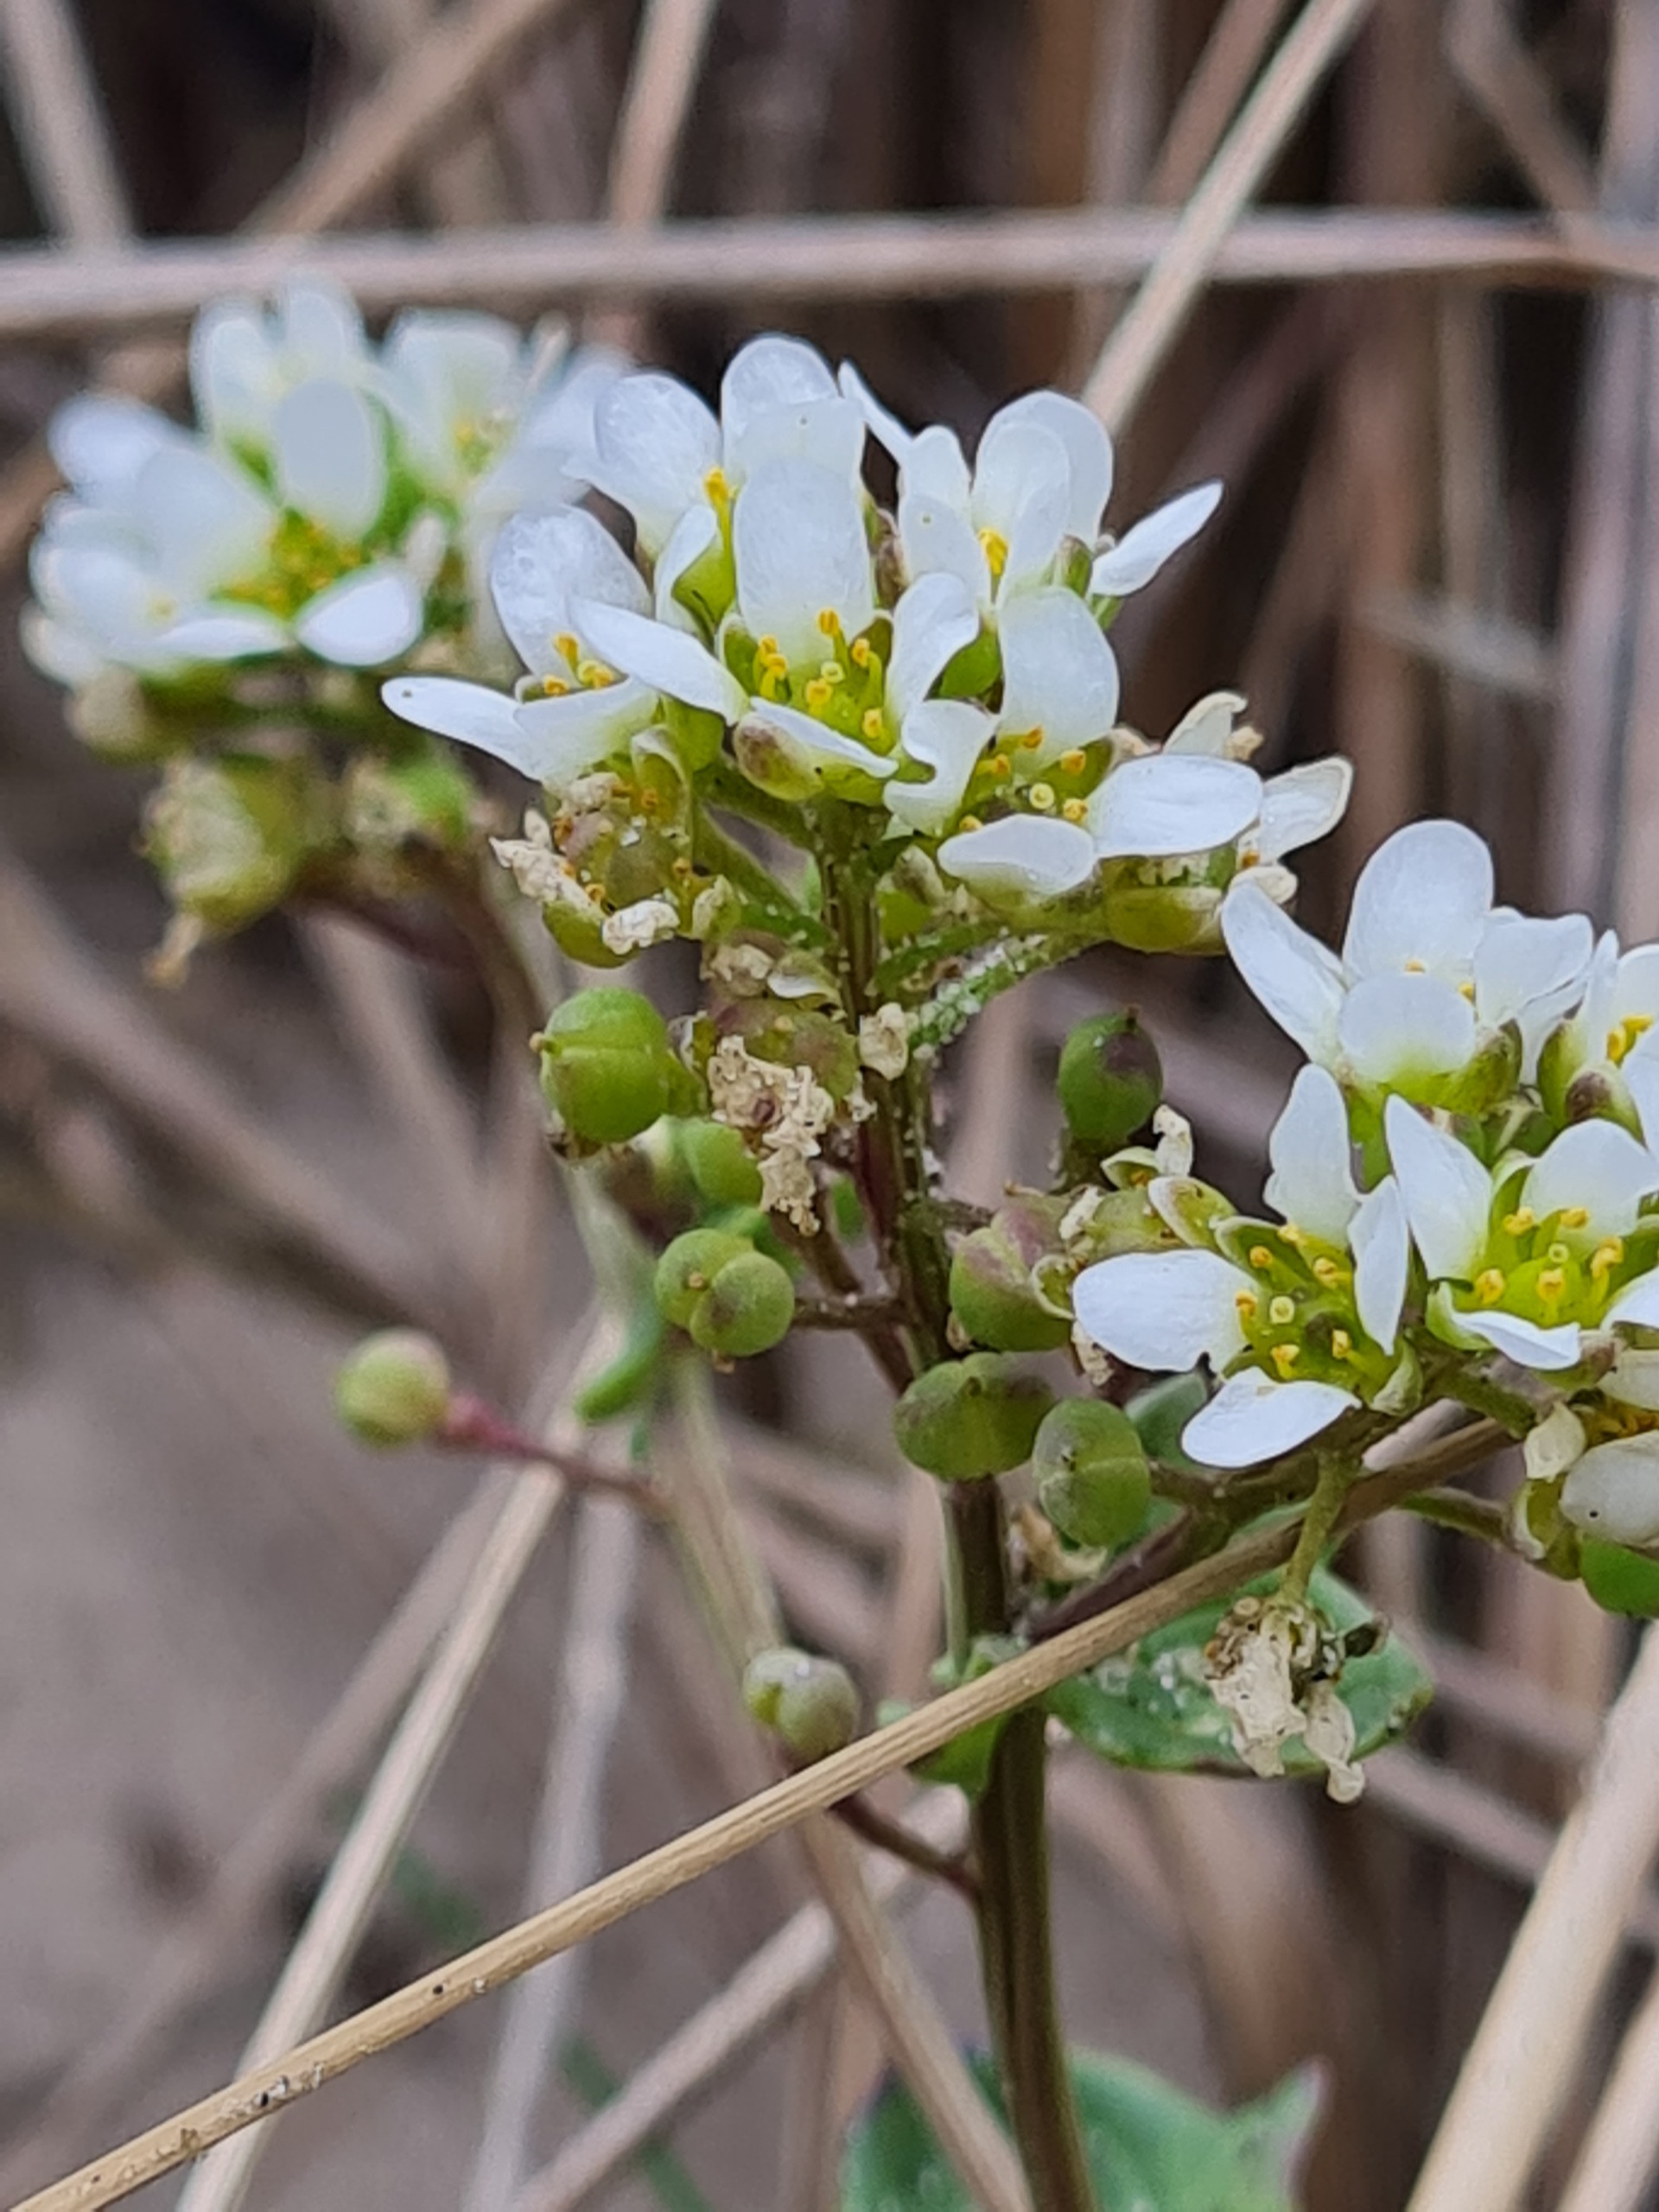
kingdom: Plantae
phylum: Tracheophyta
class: Magnoliopsida
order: Brassicales
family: Brassicaceae
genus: Cochlearia
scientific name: Cochlearia officinalis
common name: Læge-kokleare
